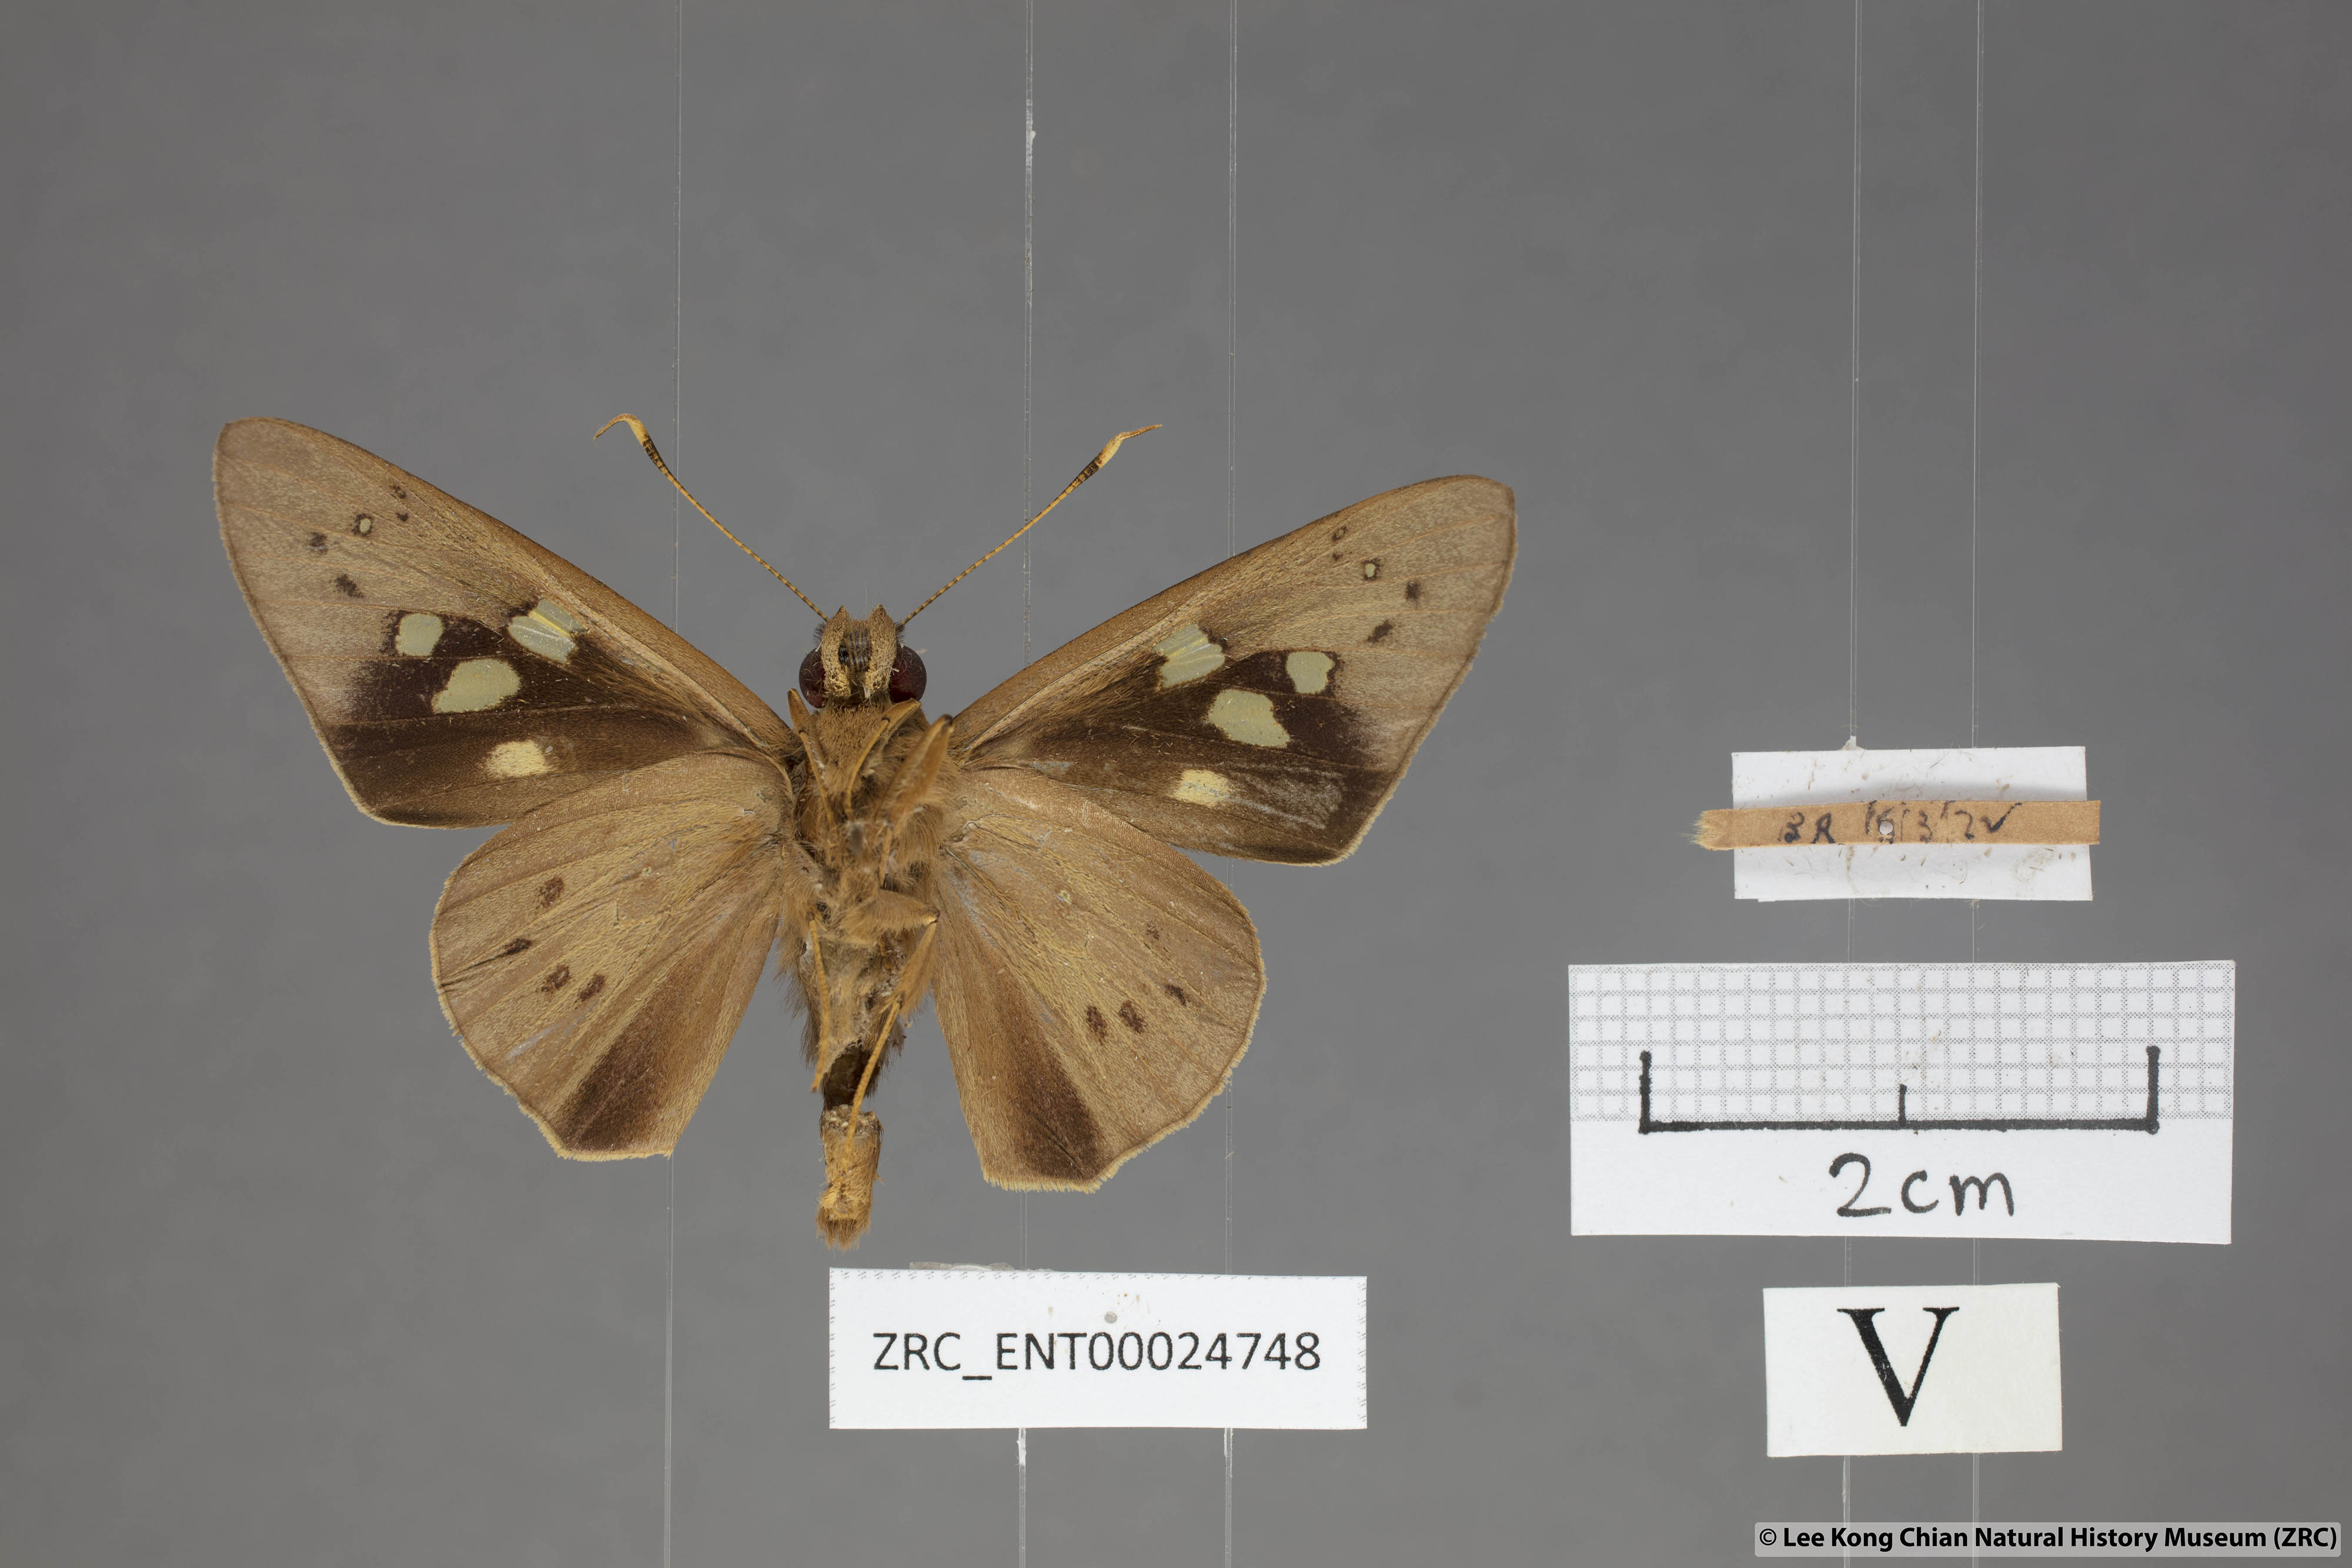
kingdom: Animalia
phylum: Arthropoda
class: Insecta
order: Lepidoptera
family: Hesperiidae
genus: Hidari
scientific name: Hidari irava
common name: Coconut skipper
